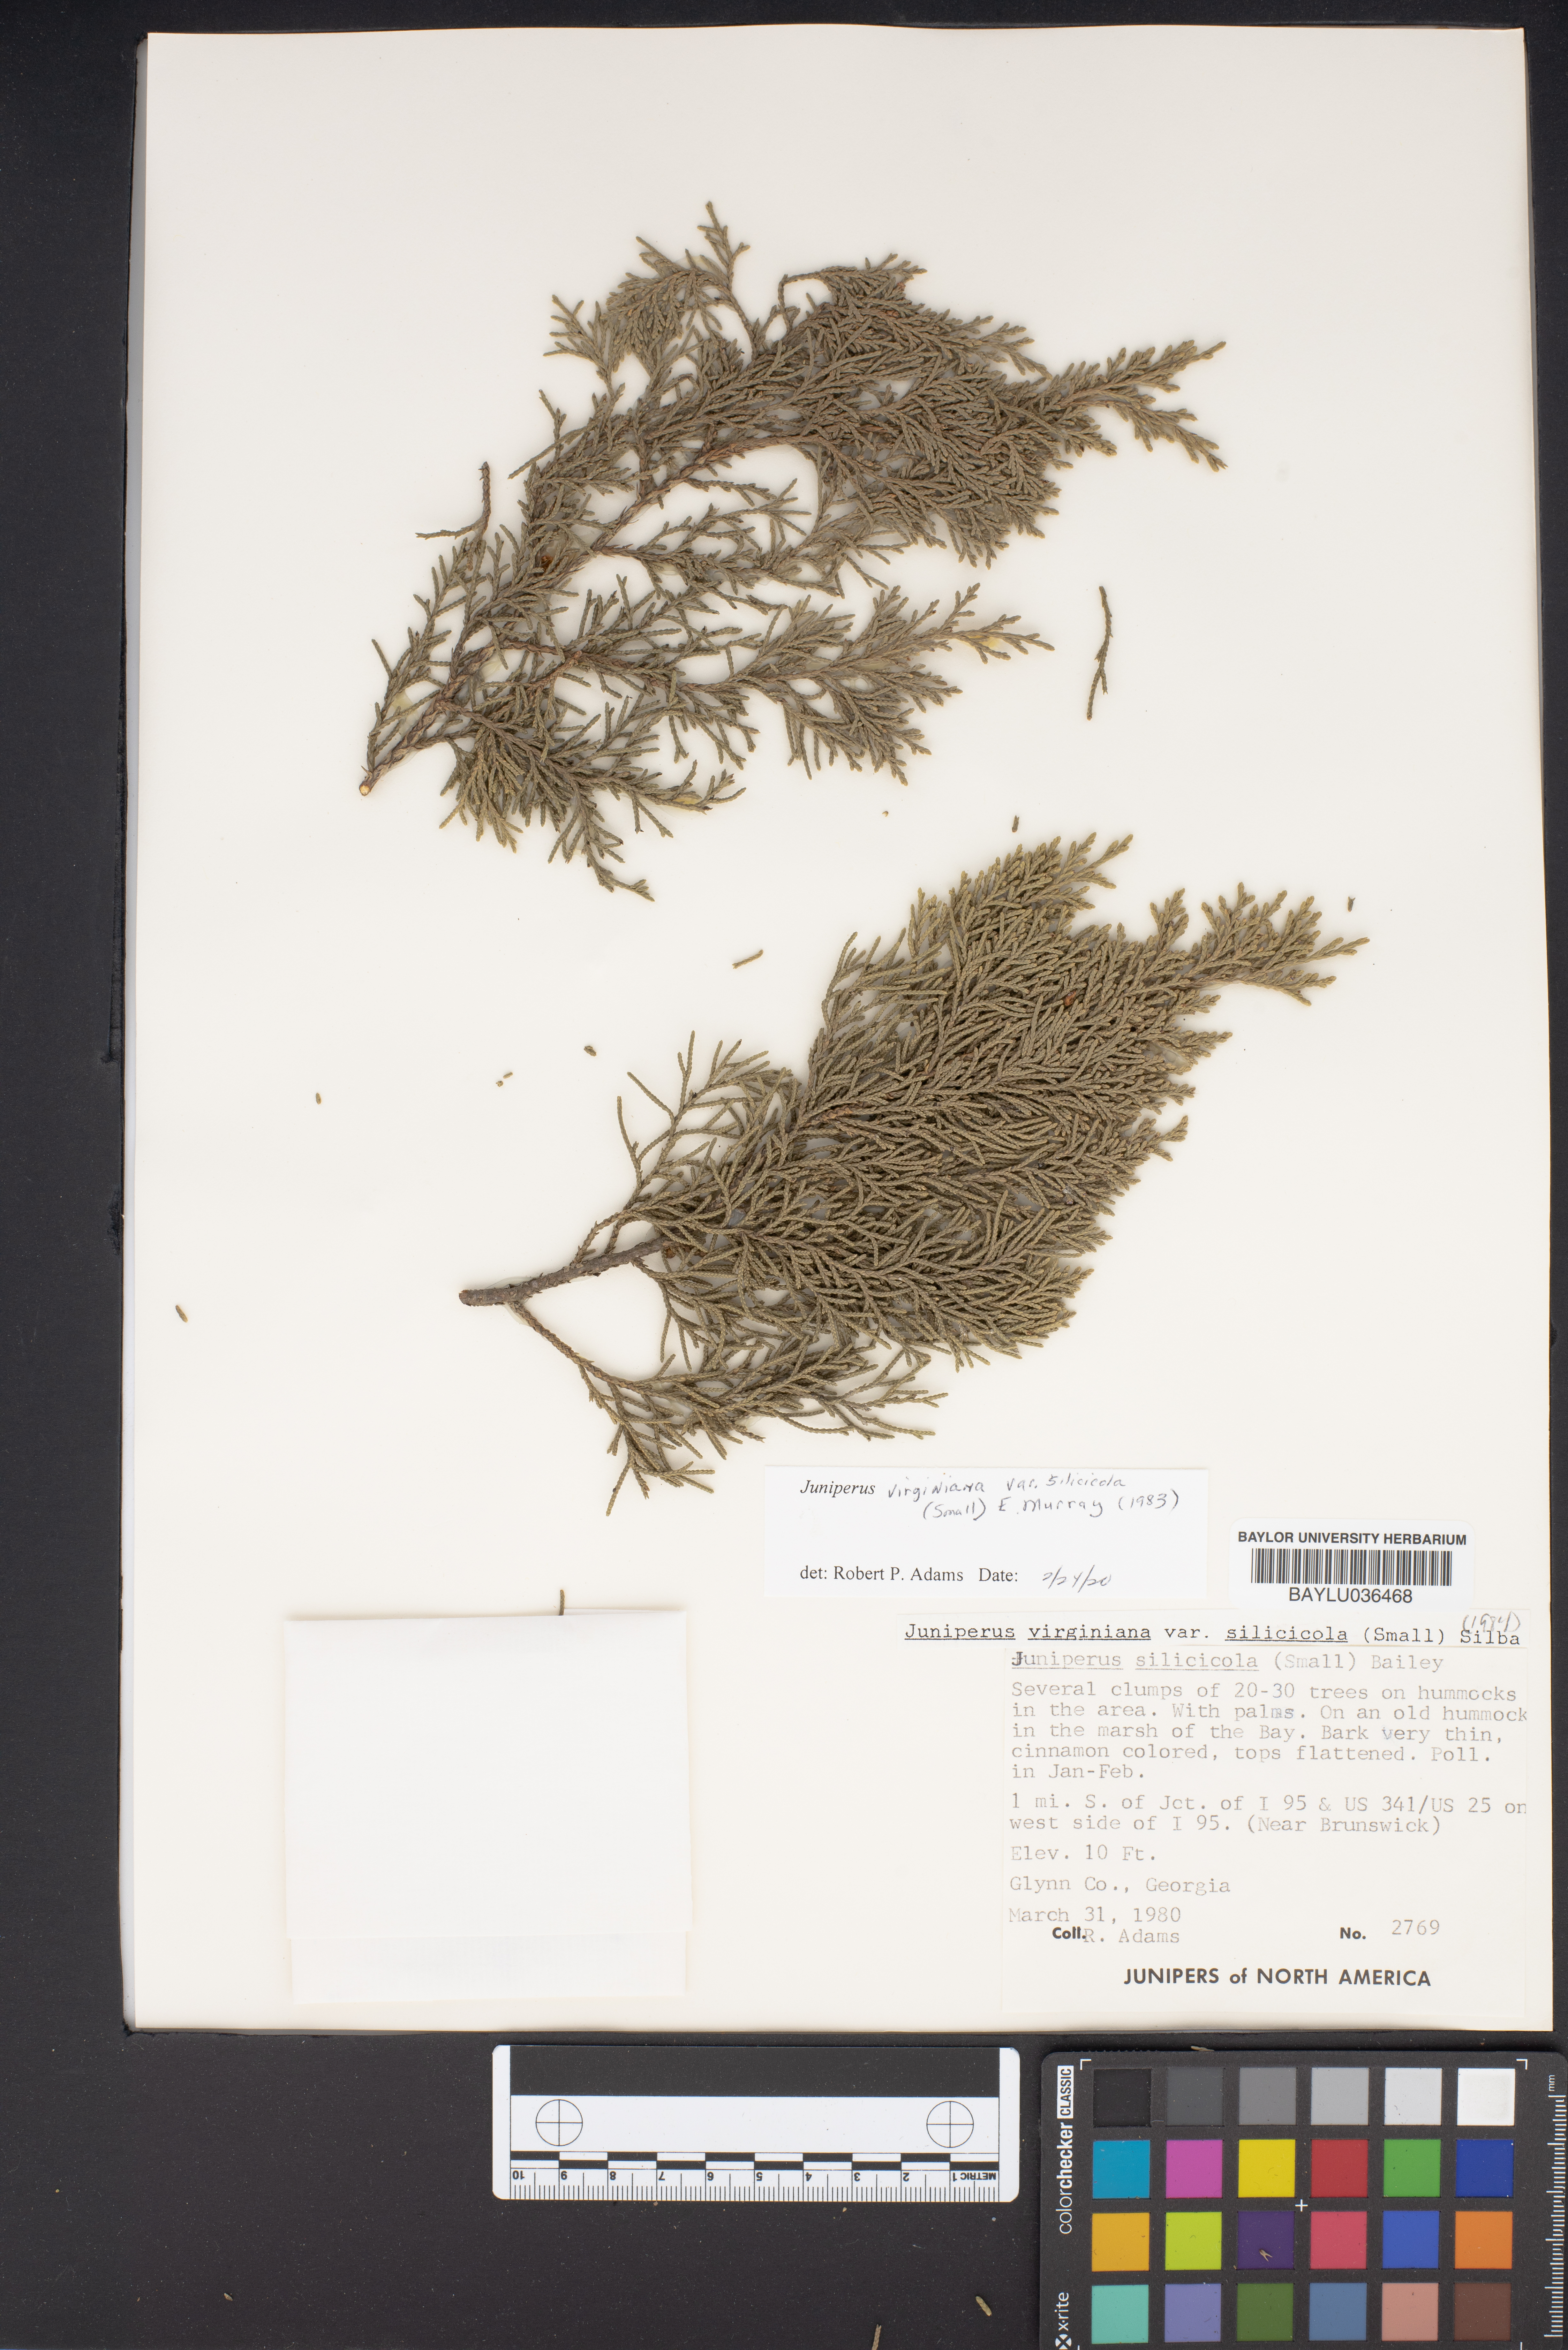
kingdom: Plantae
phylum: Tracheophyta
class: Pinopsida
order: Pinales
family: Cupressaceae
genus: Juniperus
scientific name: Juniperus virginiana
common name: Red juniper
